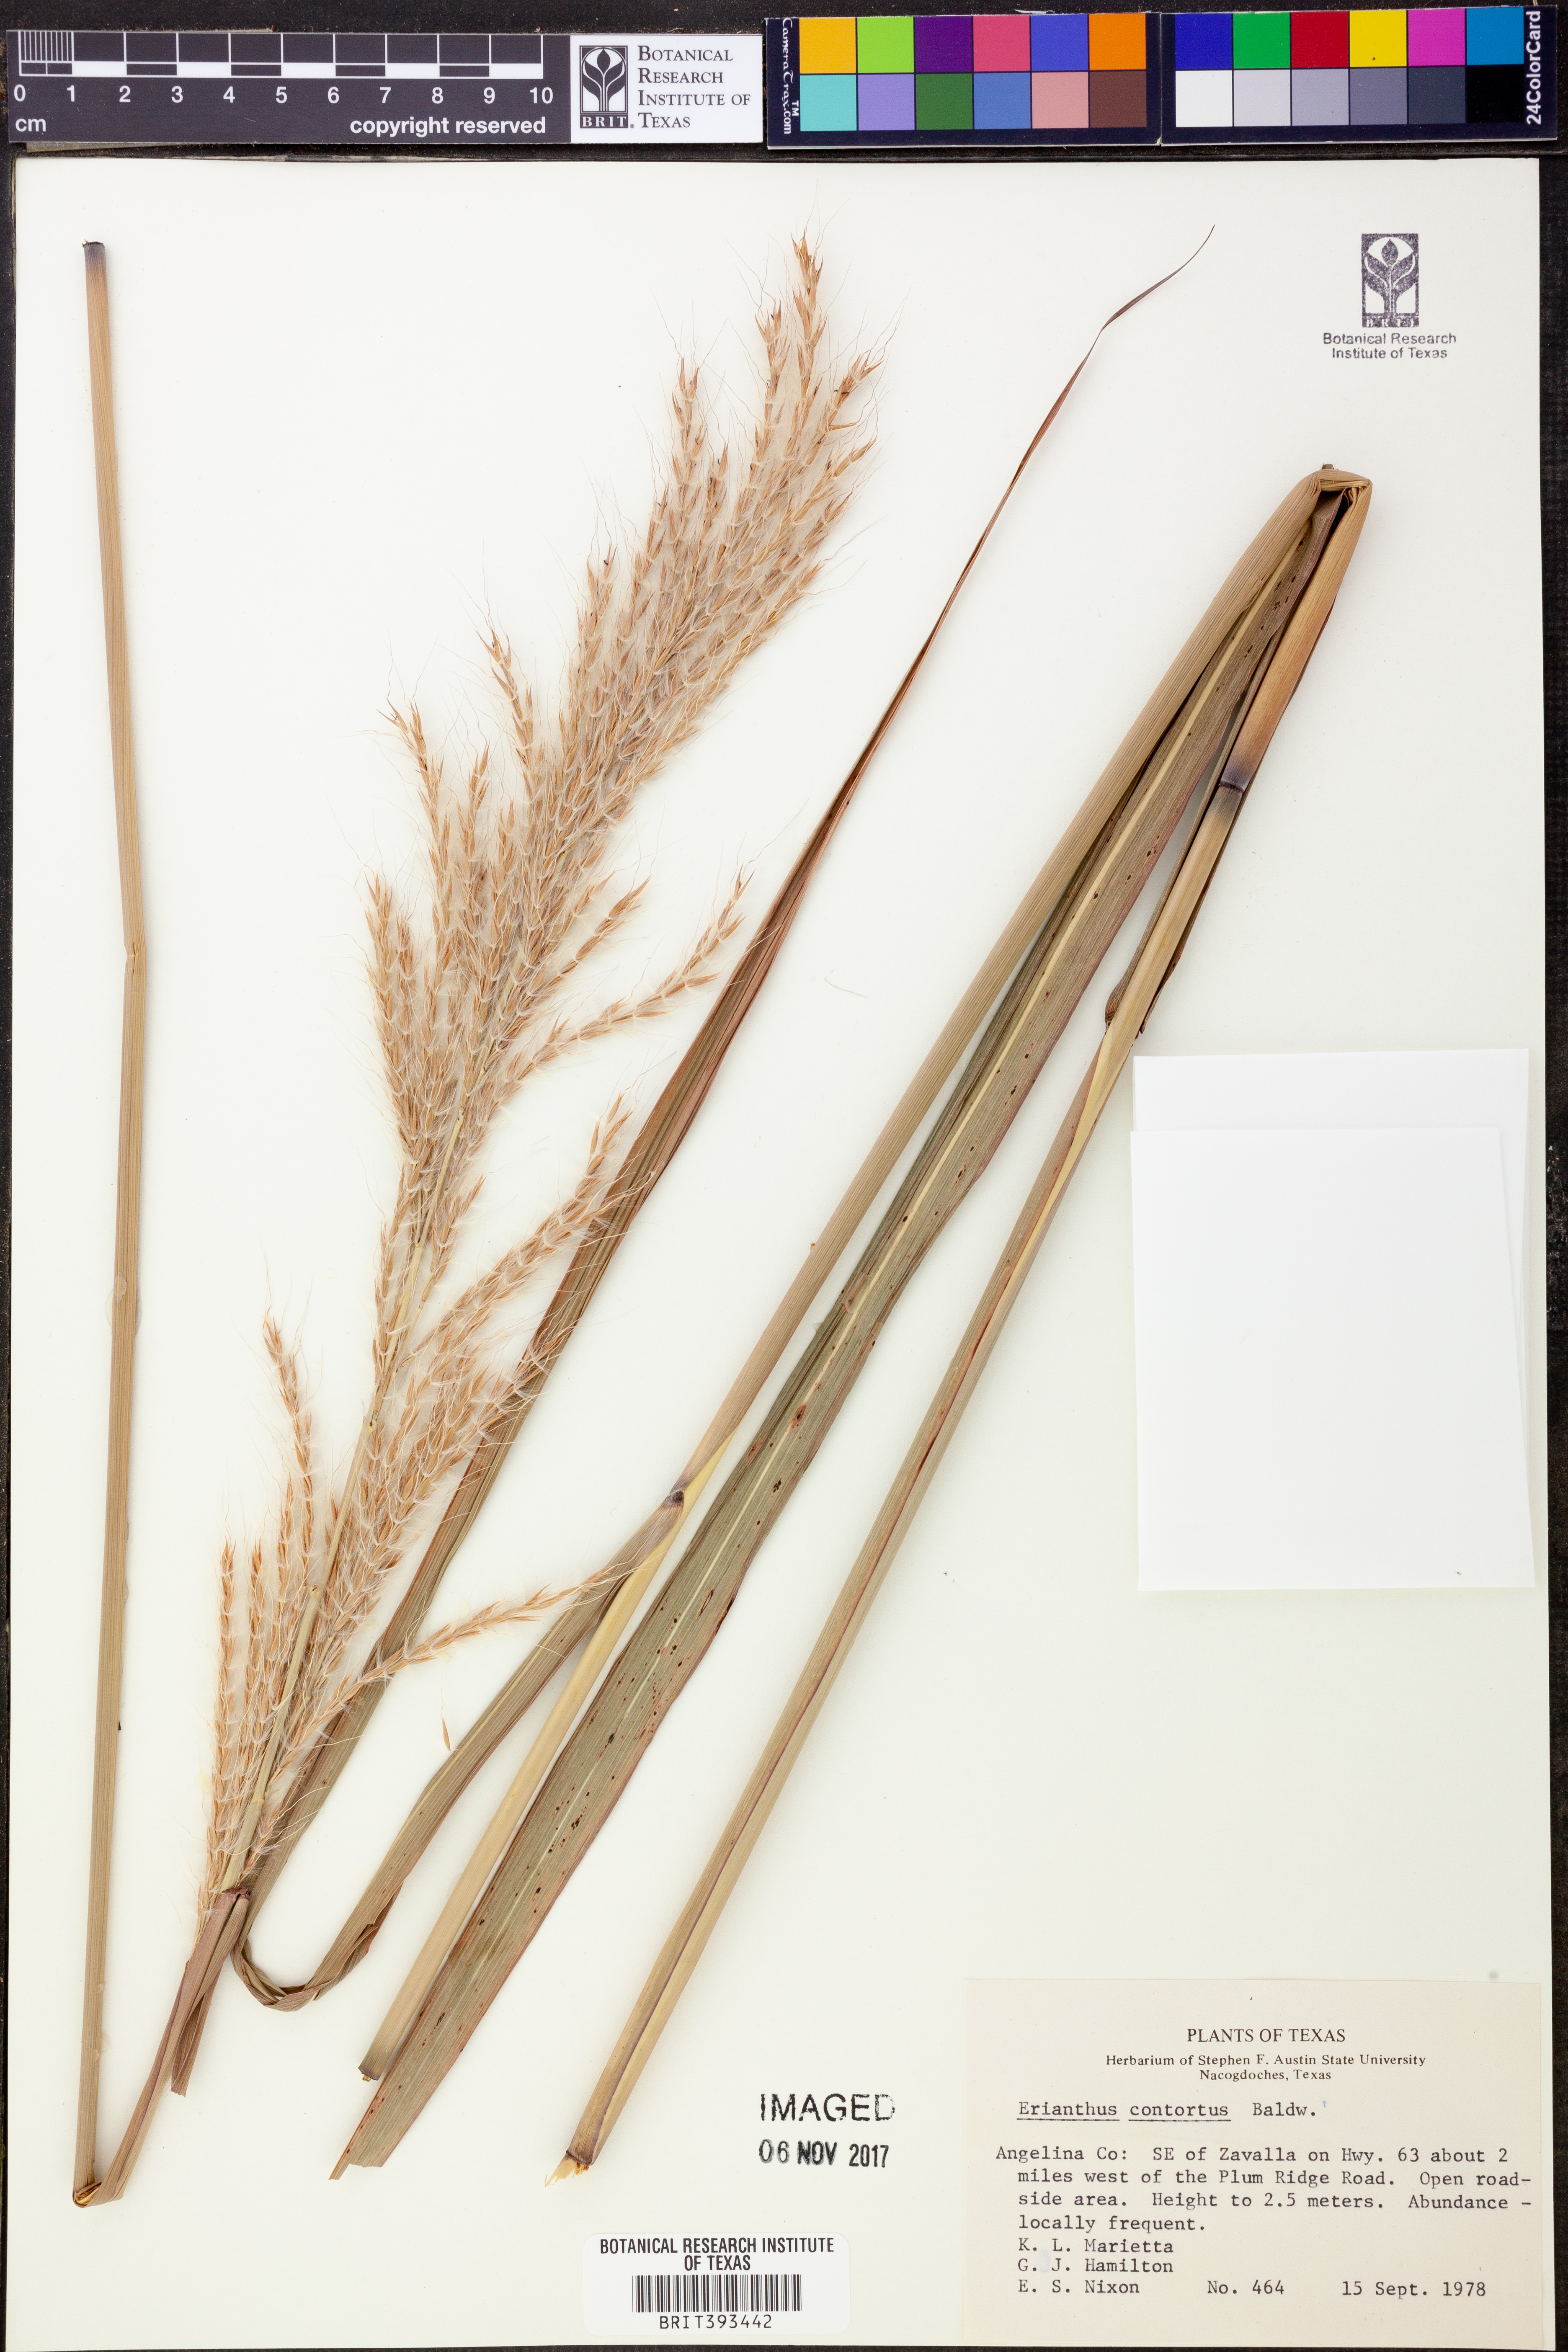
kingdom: Plantae
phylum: Tracheophyta
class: Liliopsida
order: Poales
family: Poaceae
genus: Erianthus
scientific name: Erianthus contortus
